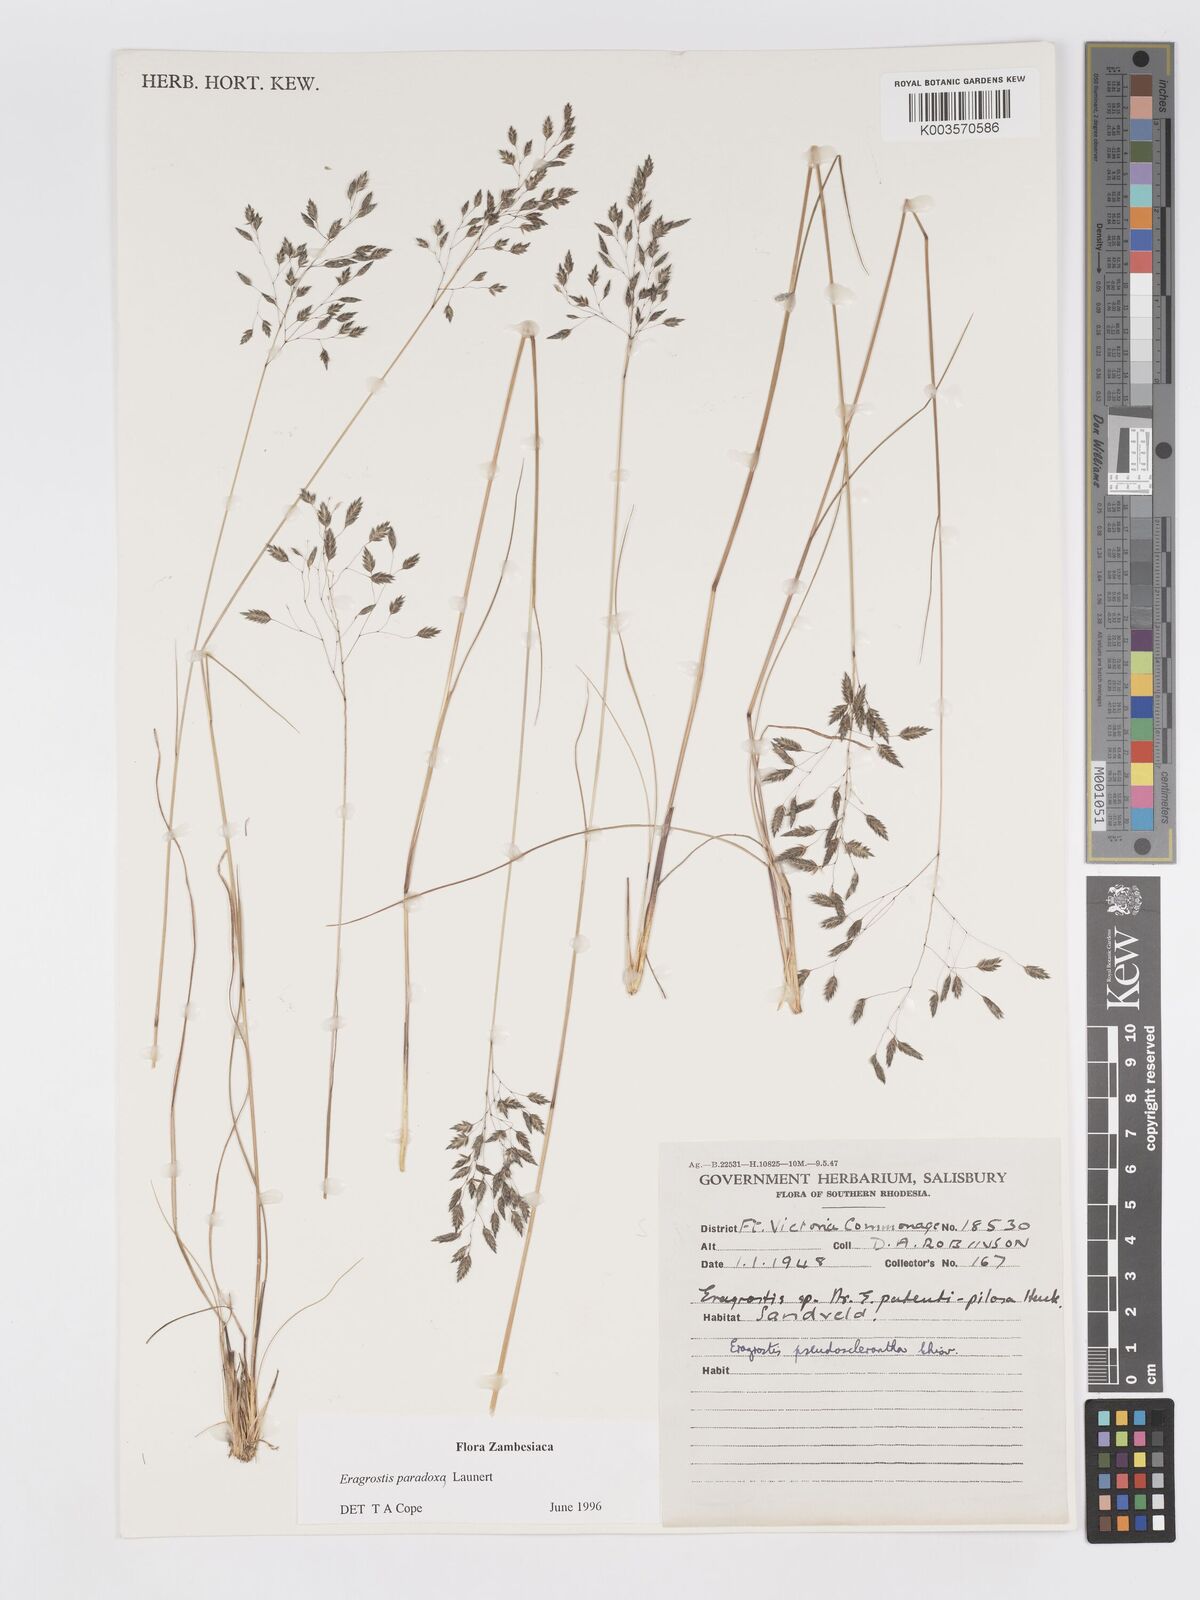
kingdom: Plantae
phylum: Tracheophyta
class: Liliopsida
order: Poales
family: Poaceae
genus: Eragrostis
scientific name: Eragrostis paradoxa
